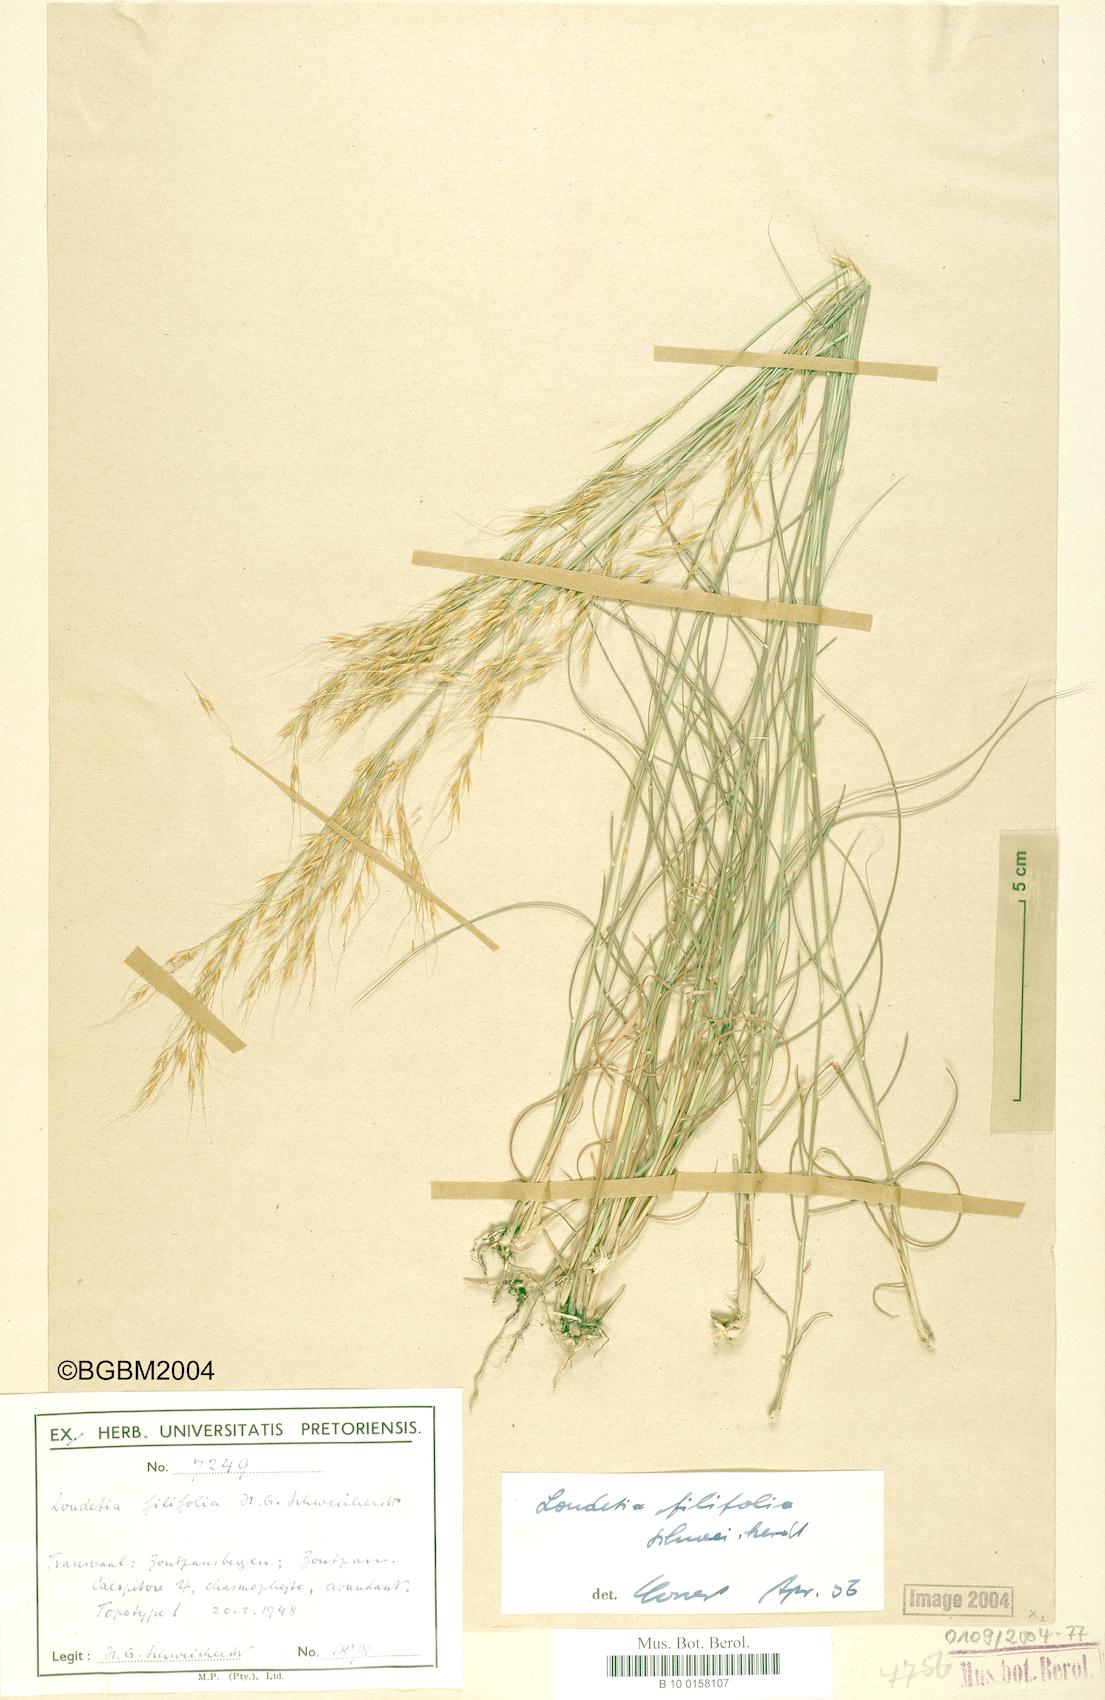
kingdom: Plantae
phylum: Tracheophyta
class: Liliopsida
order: Poales
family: Poaceae
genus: Loudetia
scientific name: Loudetia filifolia
